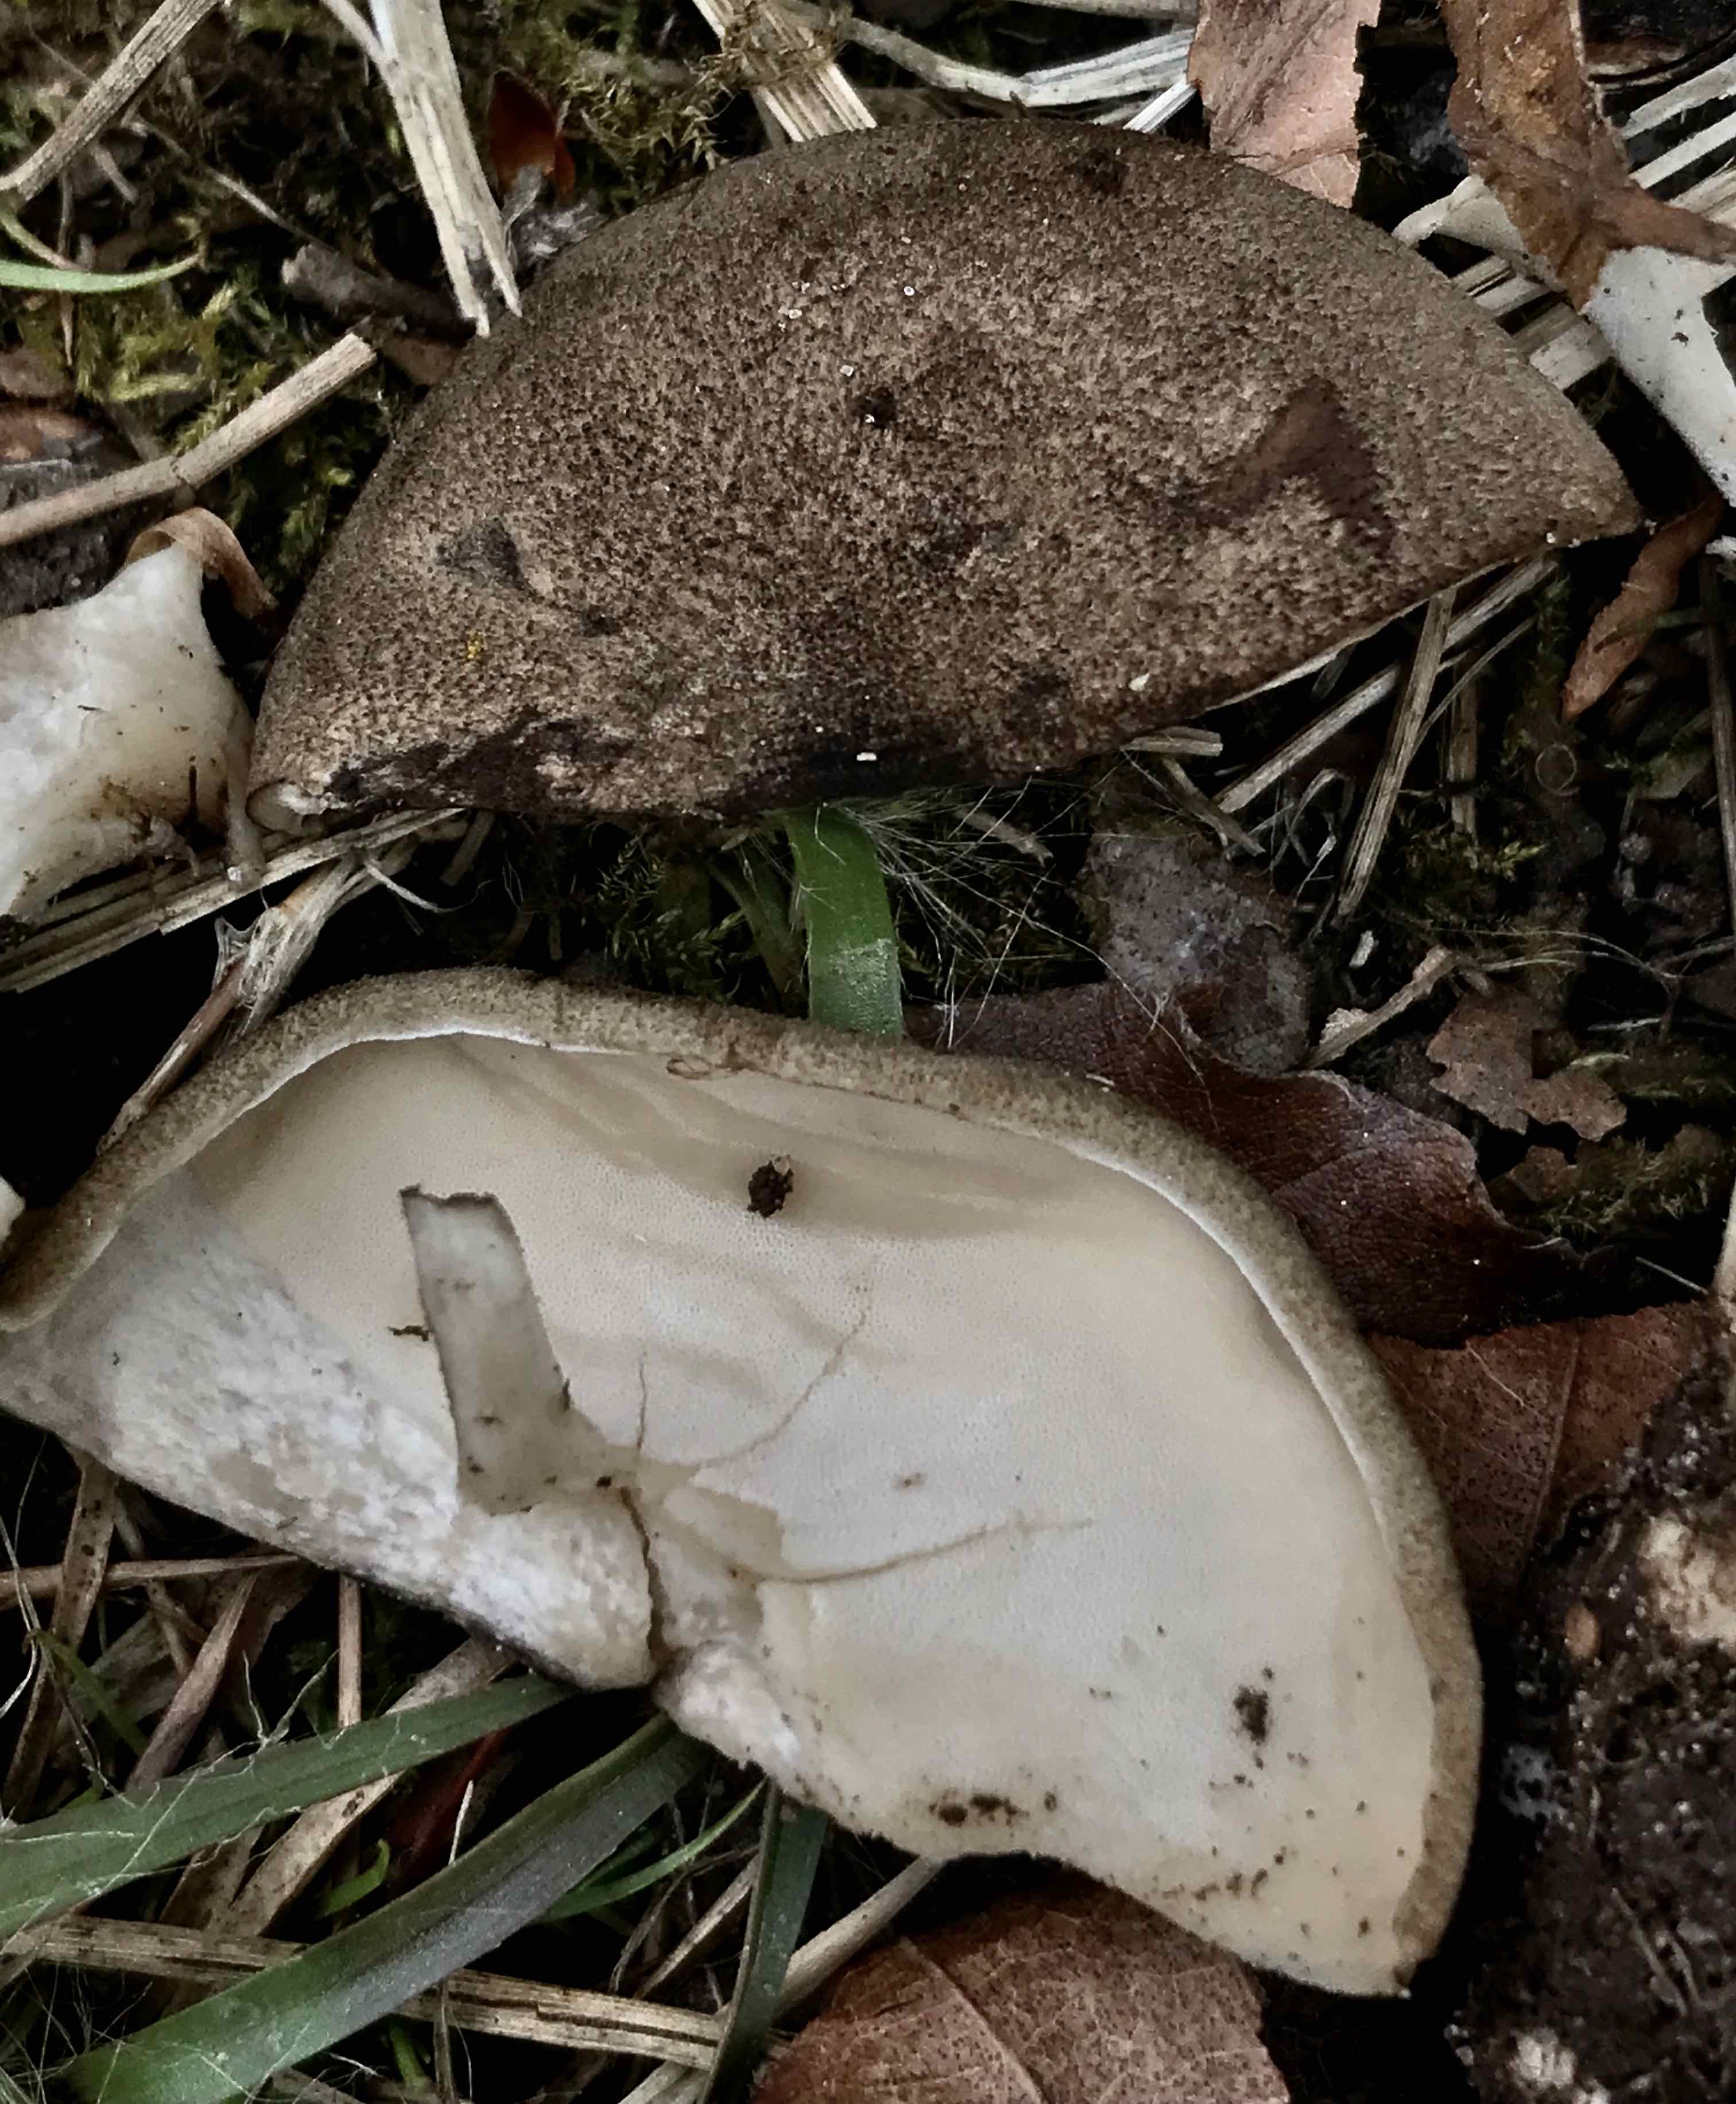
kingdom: Fungi
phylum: Basidiomycota
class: Agaricomycetes
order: Polyporales
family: Polyporaceae
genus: Lentinus
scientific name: Lentinus substrictus
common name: forårs-stilkporesvamp
